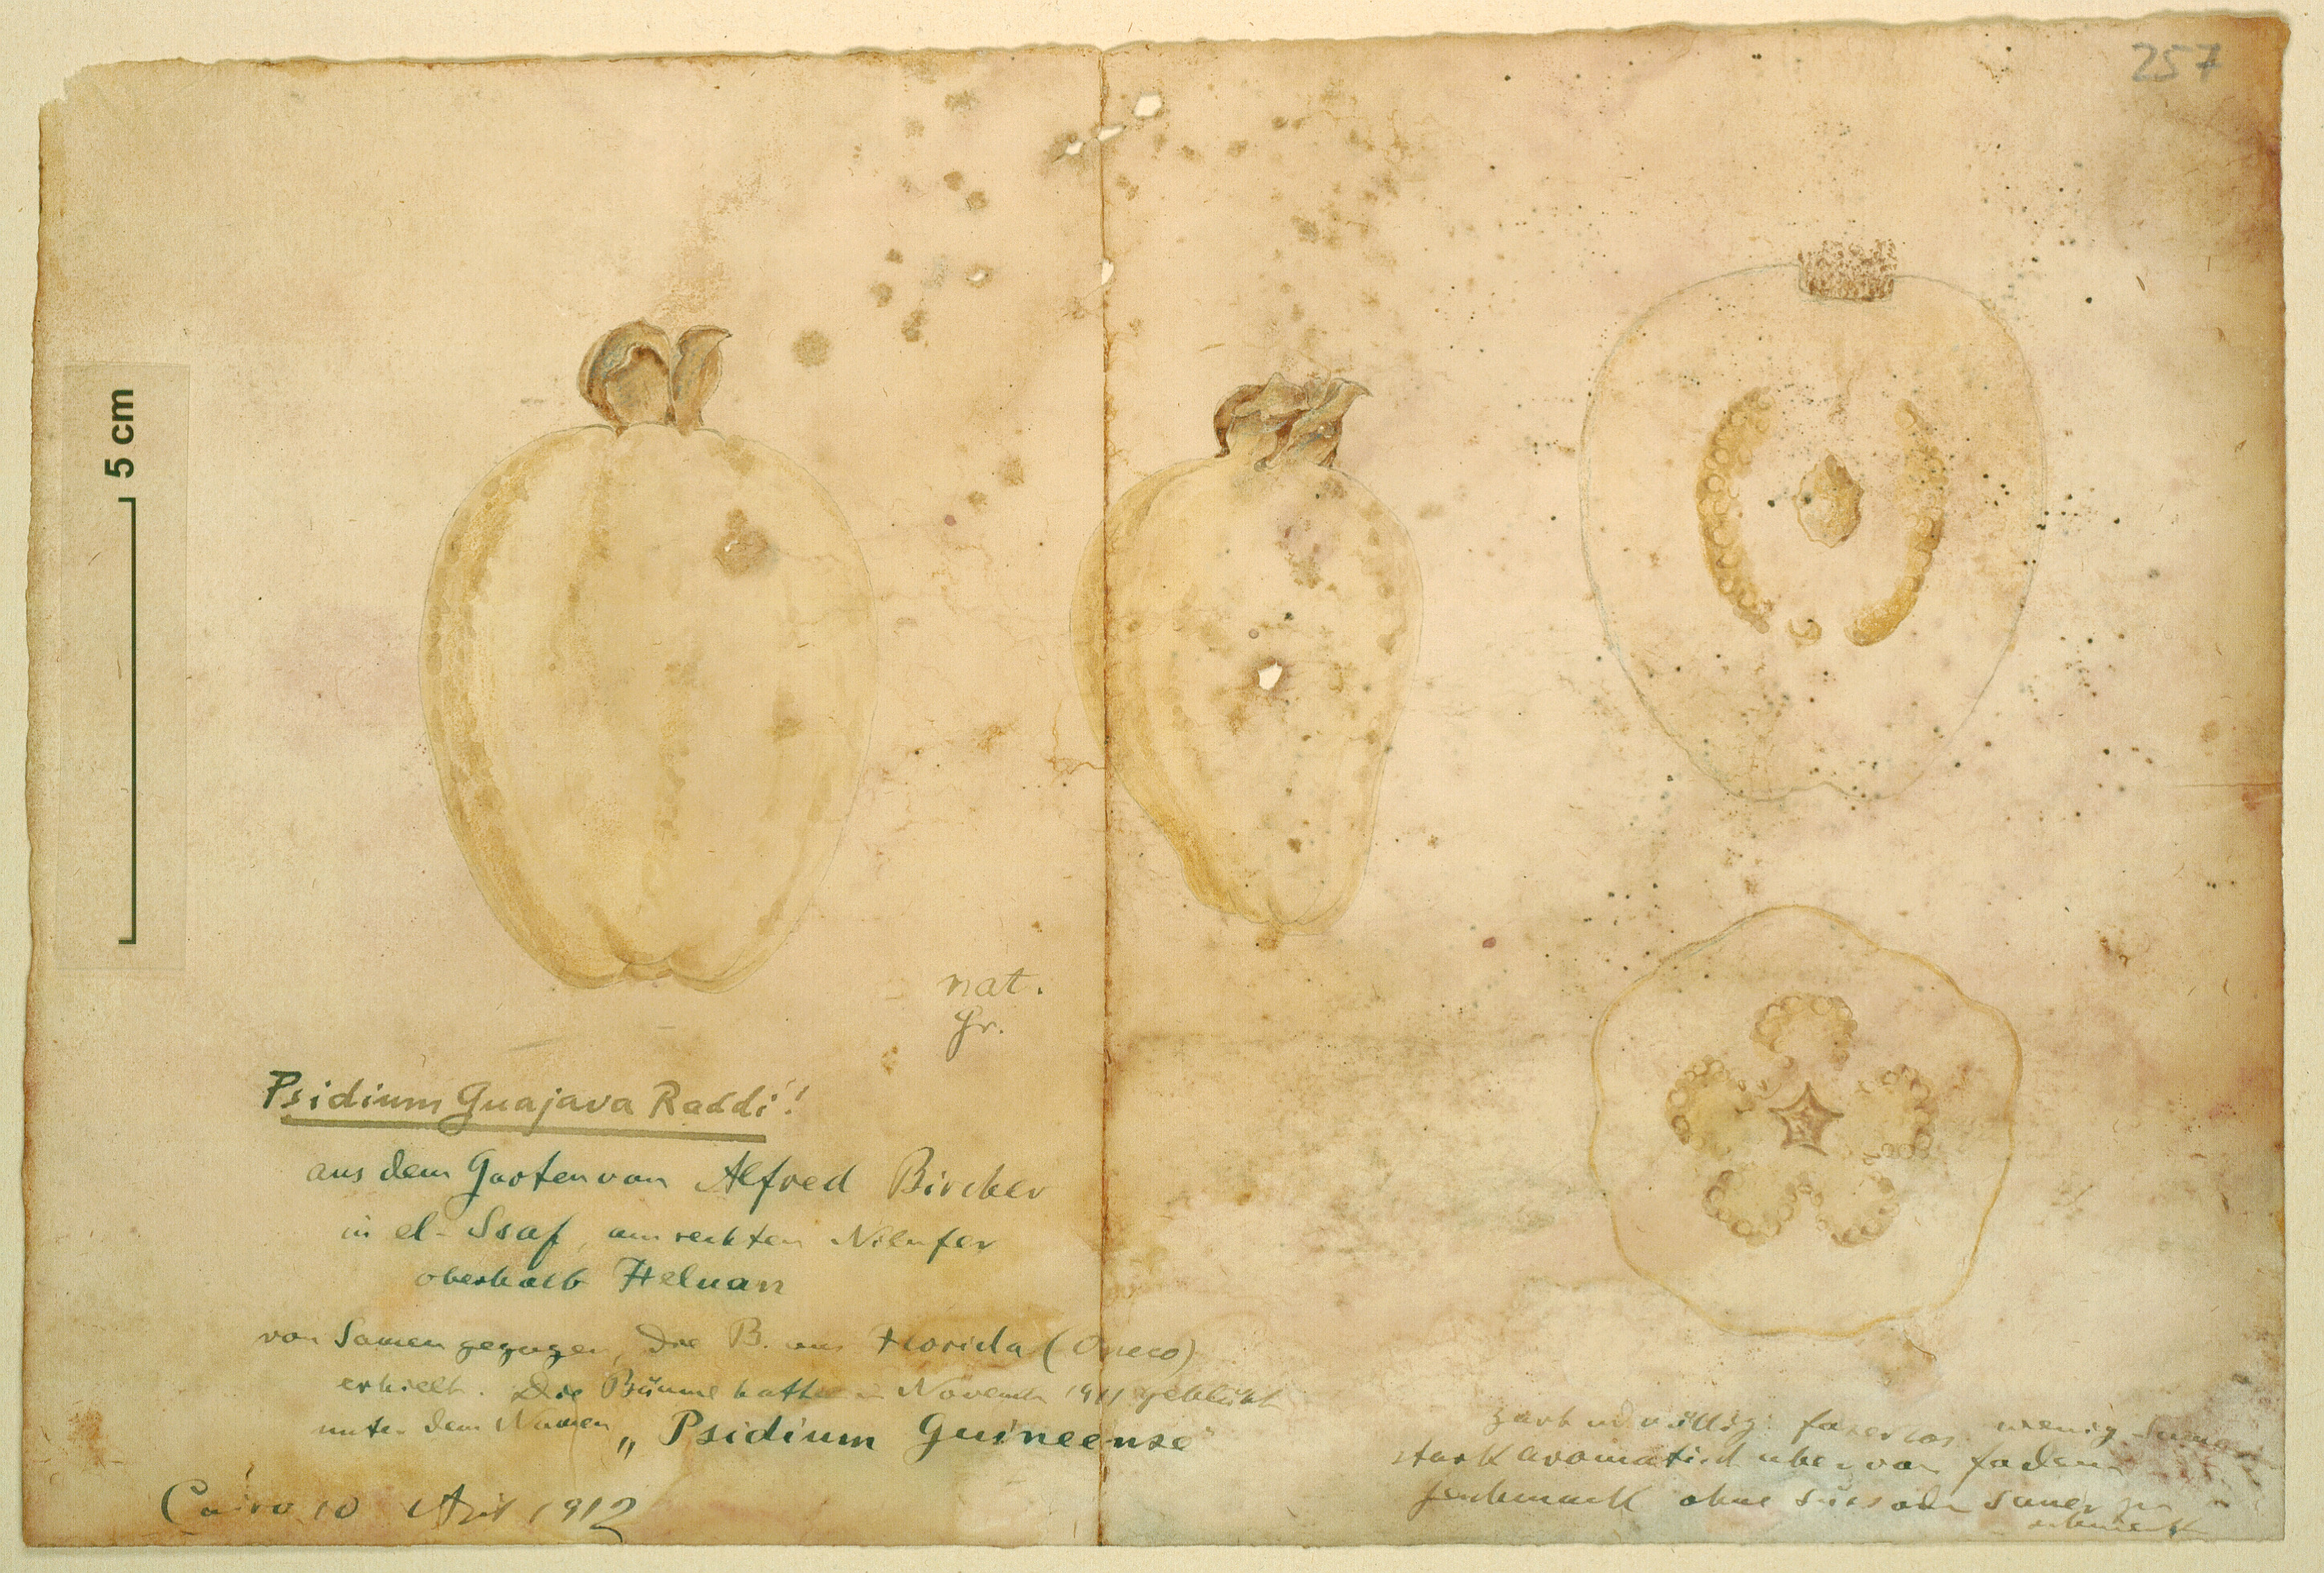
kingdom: Plantae
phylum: Tracheophyta
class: Magnoliopsida
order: Myrtales
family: Myrtaceae
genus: Psidium
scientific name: Psidium guajava
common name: Guava
